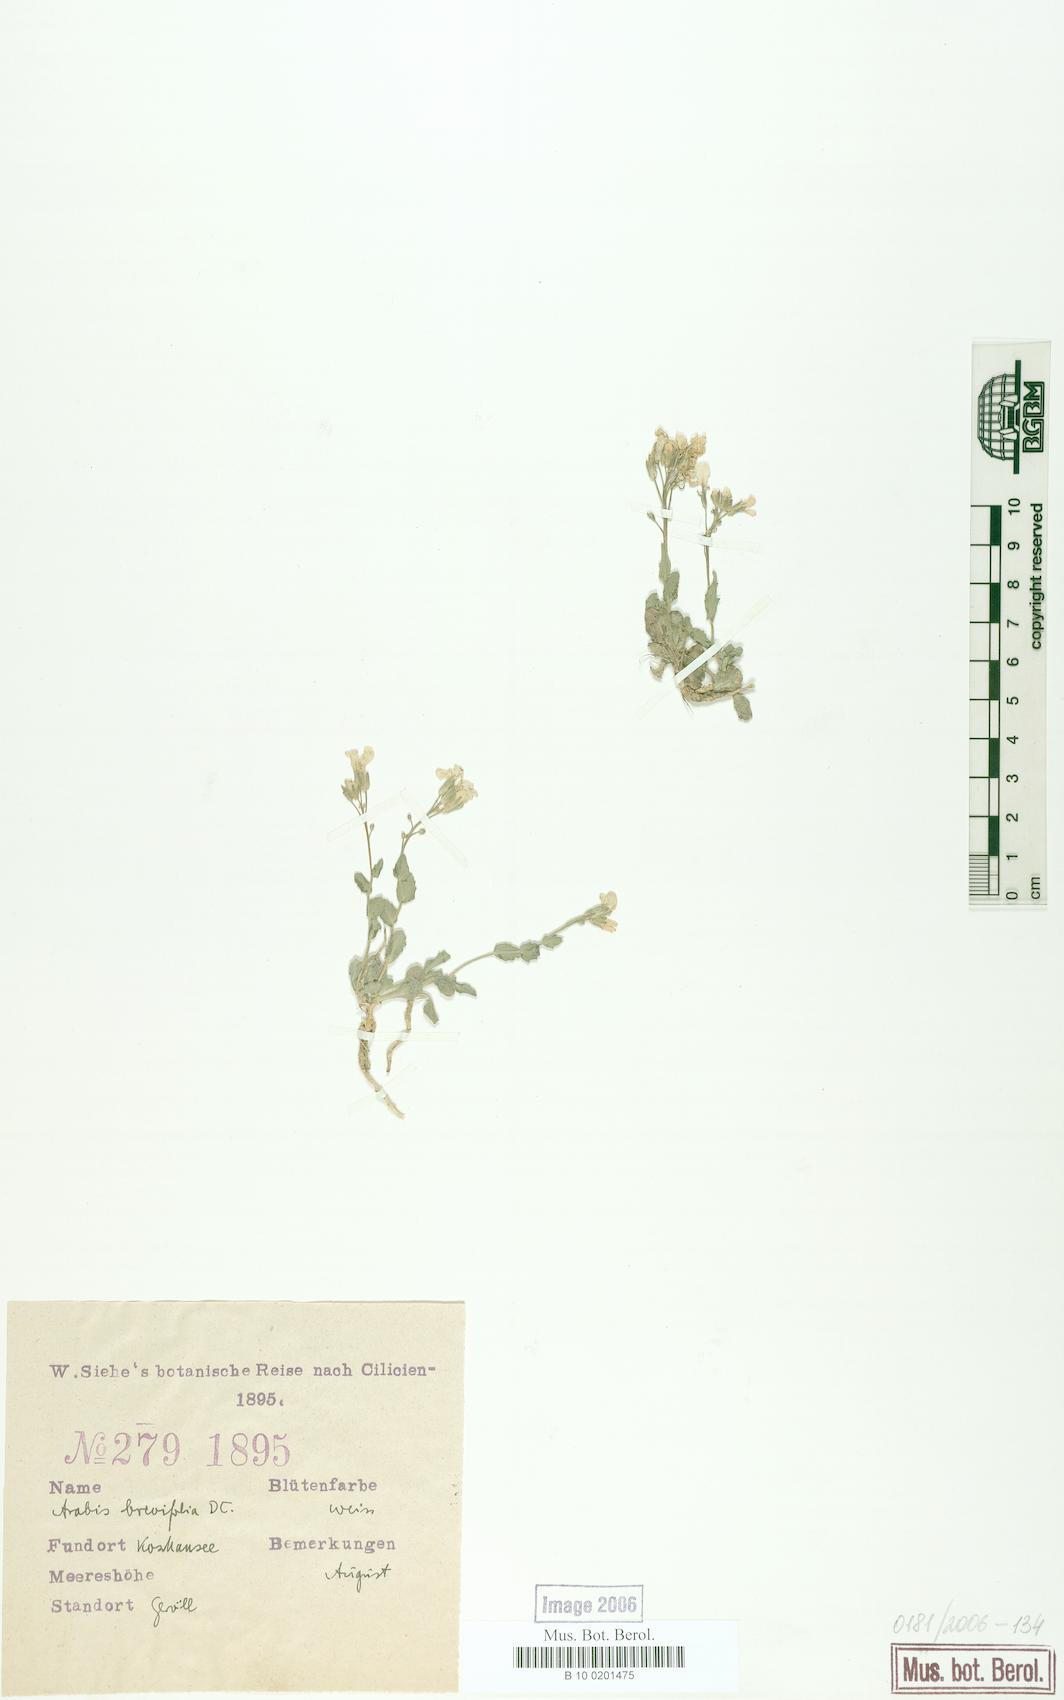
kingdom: Plantae
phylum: Tracheophyta
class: Magnoliopsida
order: Brassicales
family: Brassicaceae
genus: Arabis
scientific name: Arabis caucasica
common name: Gray rockcress
